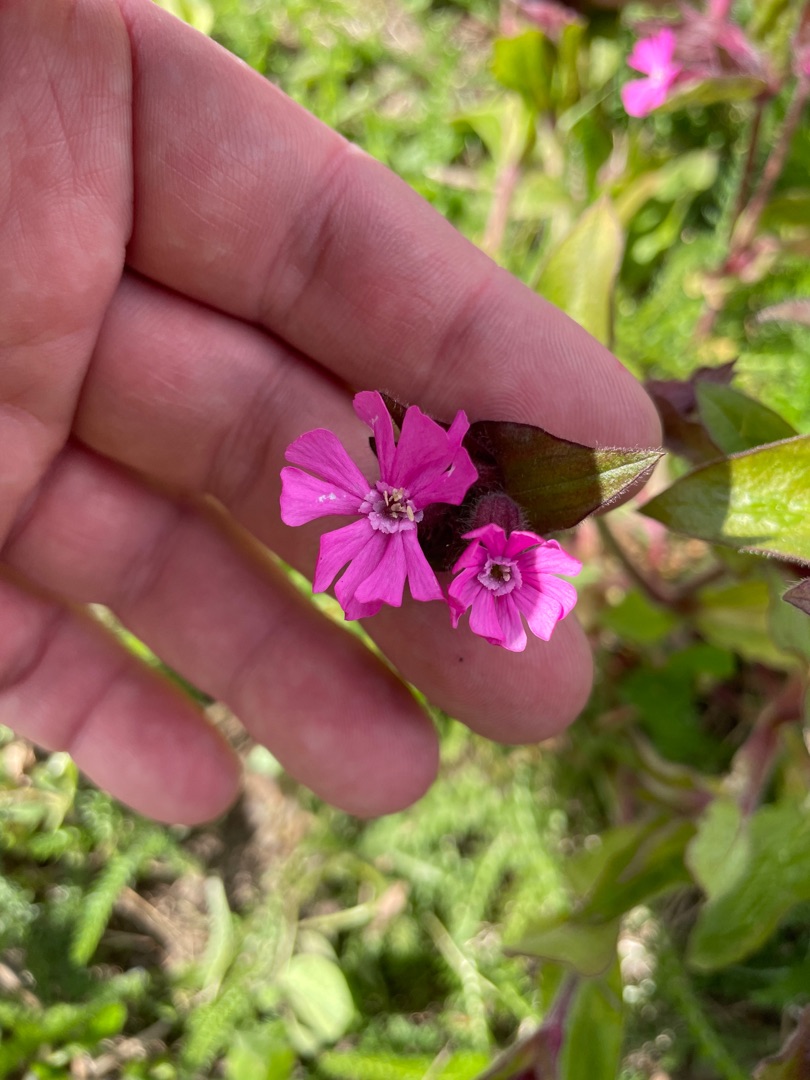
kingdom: Plantae
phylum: Tracheophyta
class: Magnoliopsida
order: Caryophyllales
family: Caryophyllaceae
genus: Silene
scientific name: Silene dioica
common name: Dagpragtstjerne
